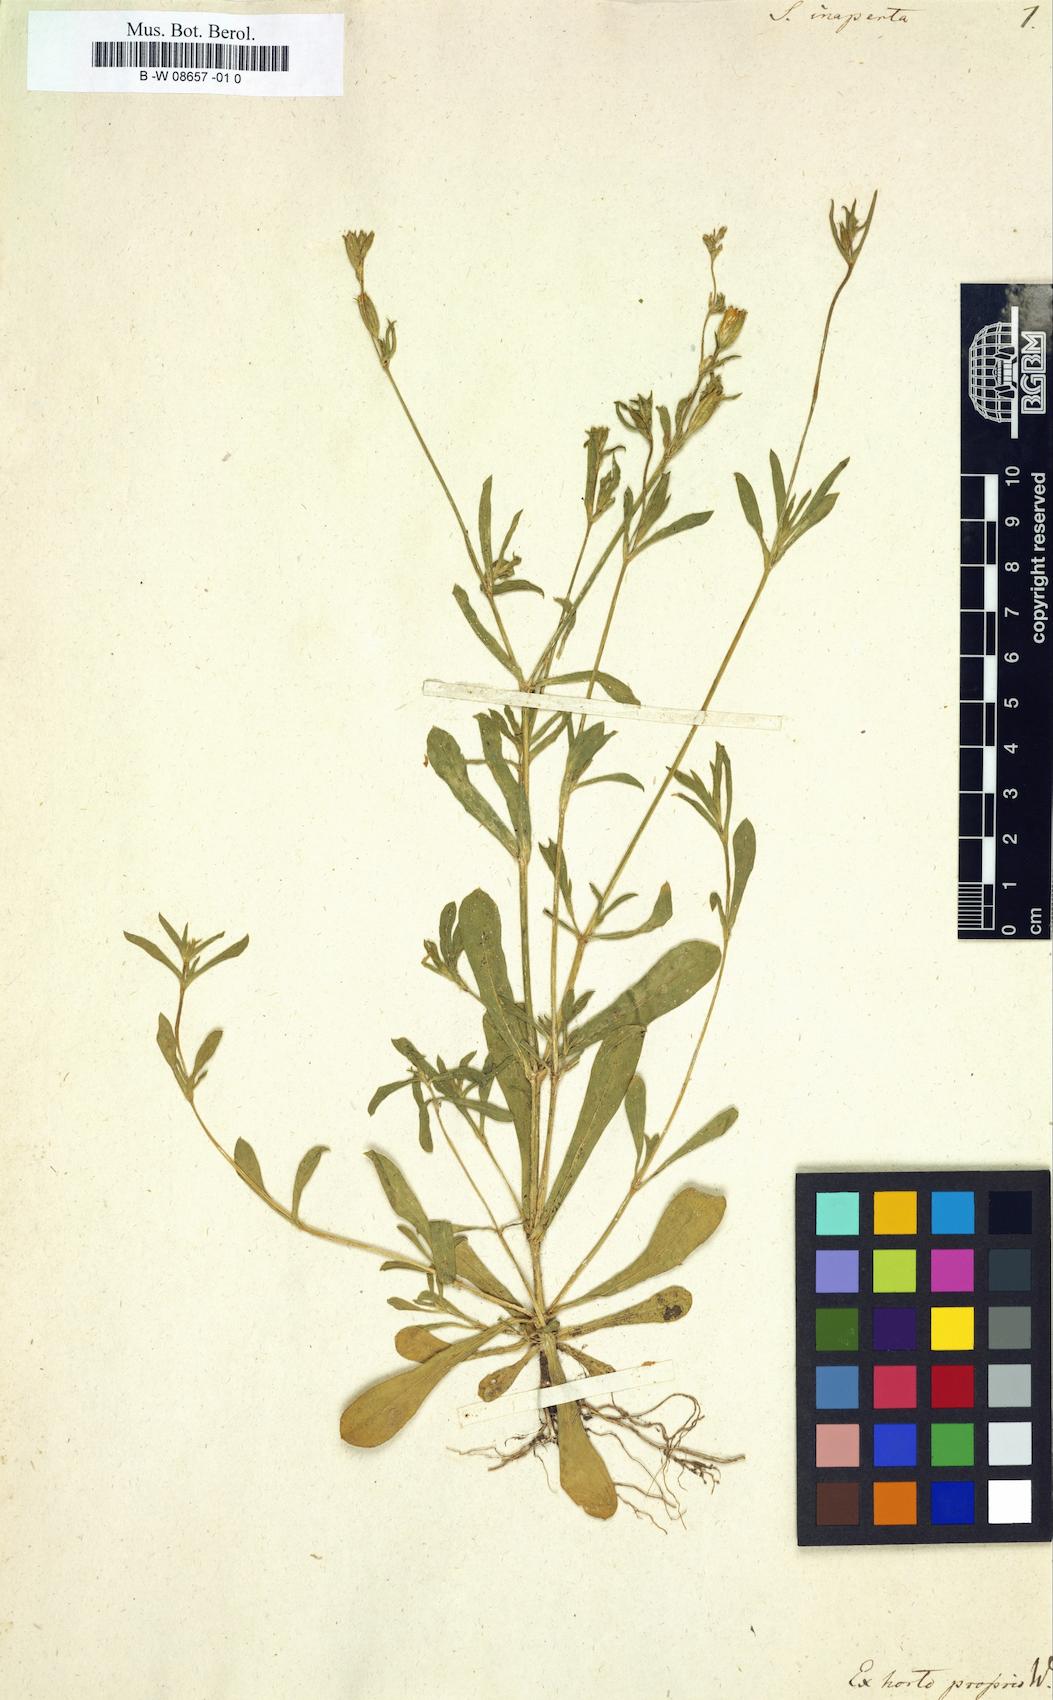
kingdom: Plantae
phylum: Tracheophyta
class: Magnoliopsida
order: Caryophyllales
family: Caryophyllaceae
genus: Silene
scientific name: Silene inaperta
